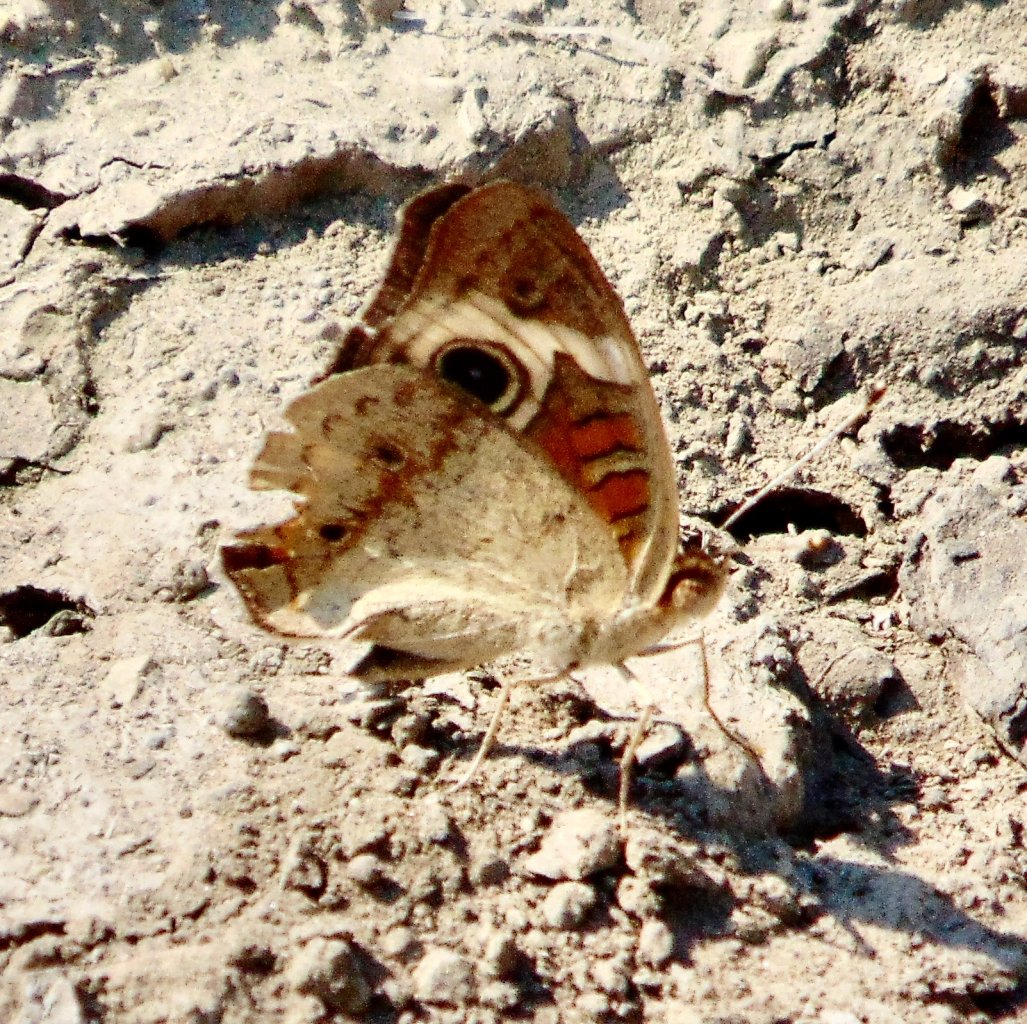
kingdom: Animalia
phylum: Arthropoda
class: Insecta
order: Lepidoptera
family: Nymphalidae
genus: Junonia
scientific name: Junonia coenia
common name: Common Buckeye
